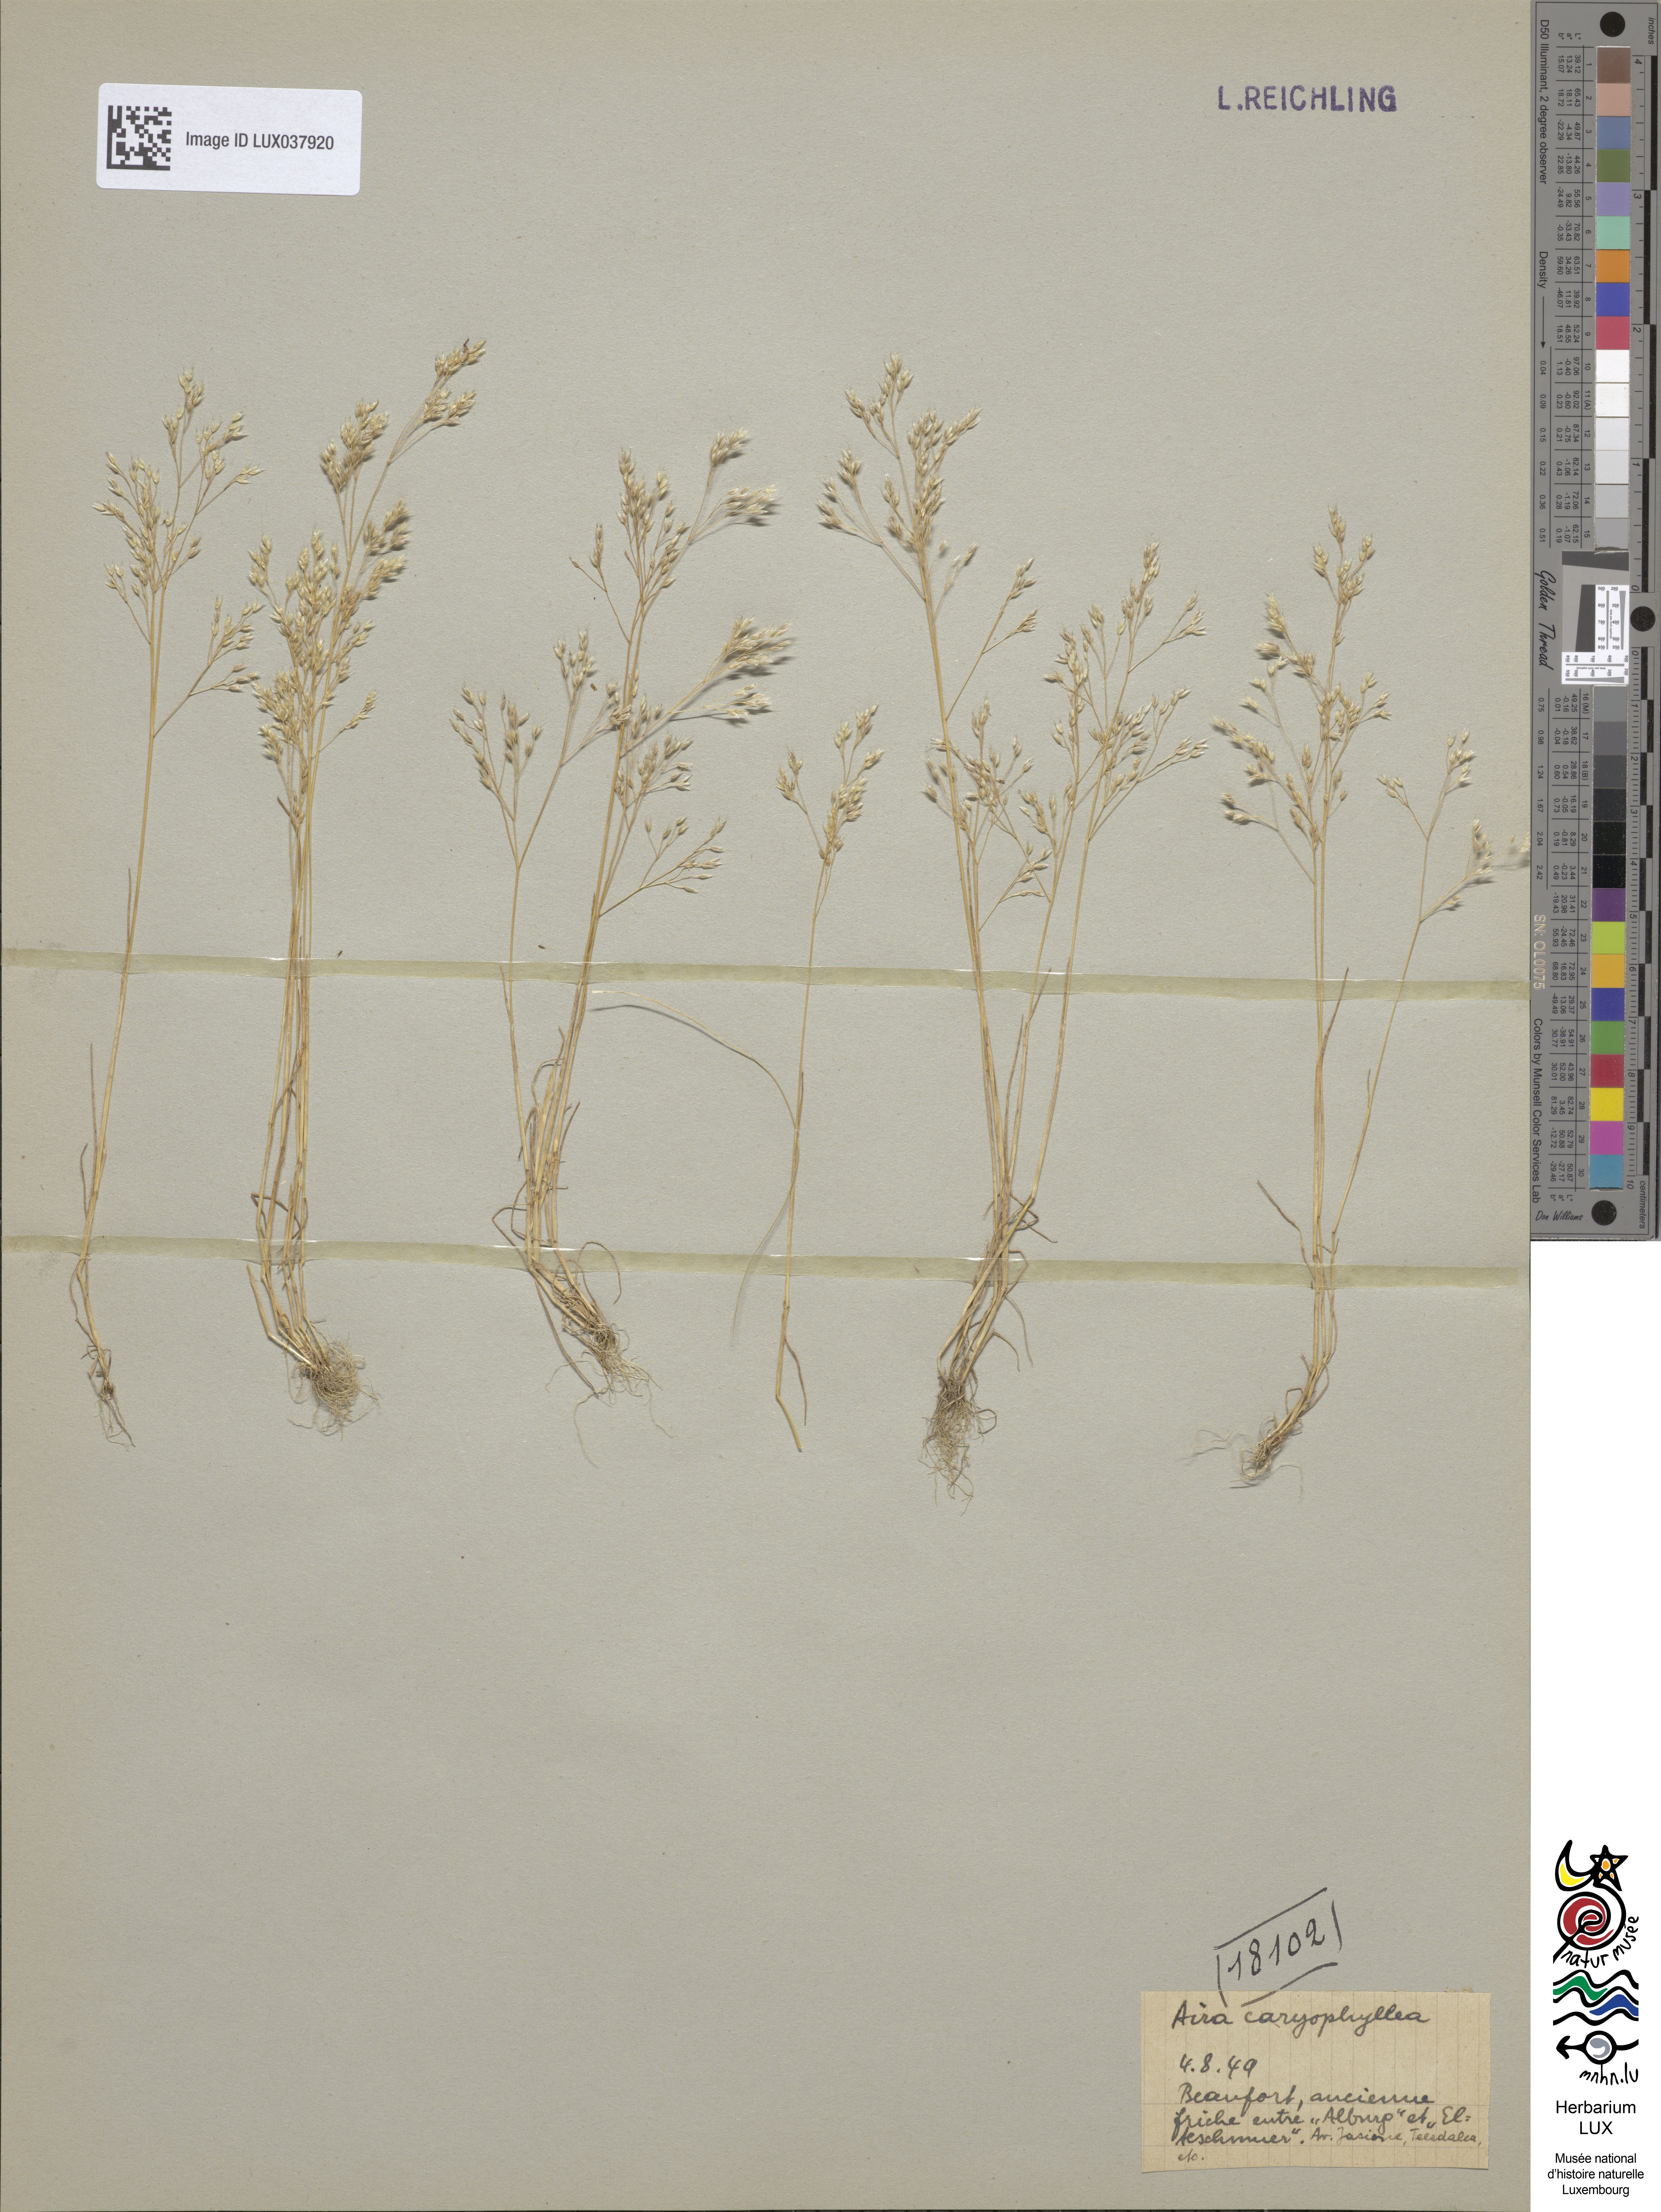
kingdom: Plantae
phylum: Tracheophyta
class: Liliopsida
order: Poales
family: Poaceae
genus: Aira
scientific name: Aira caryophyllea
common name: Silver hairgrass
